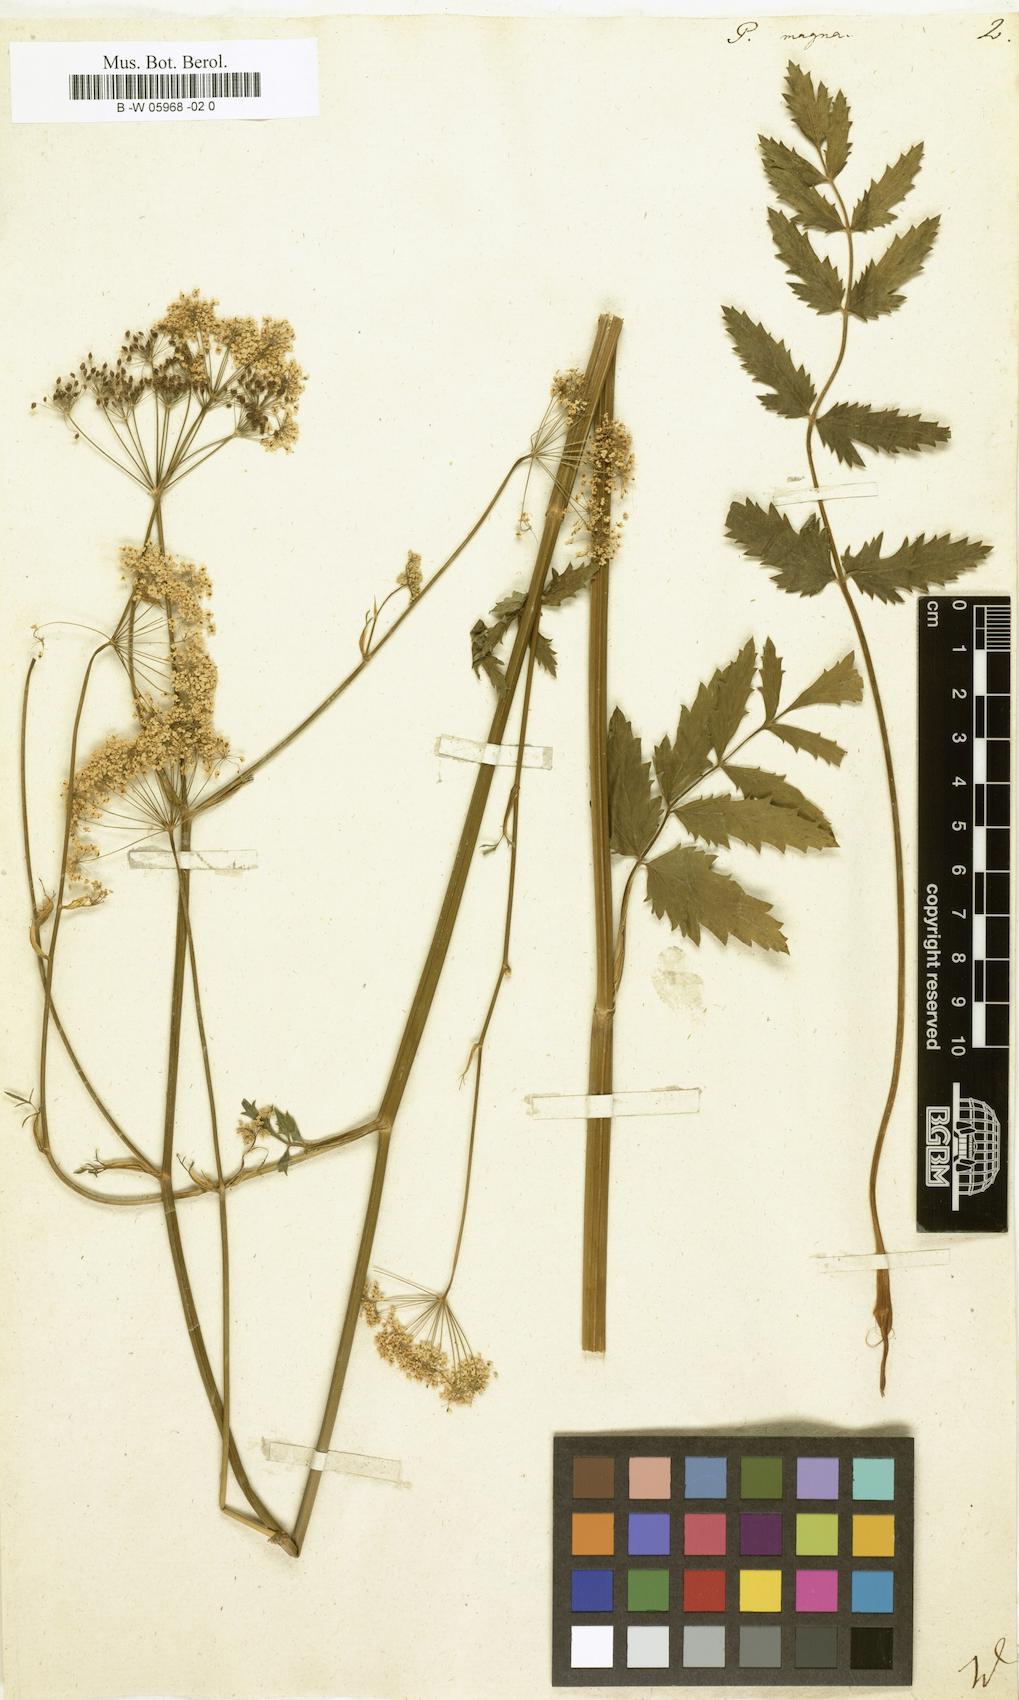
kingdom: Plantae
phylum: Tracheophyta
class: Magnoliopsida
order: Apiales
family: Apiaceae
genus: Pimpinella
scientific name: Pimpinella
